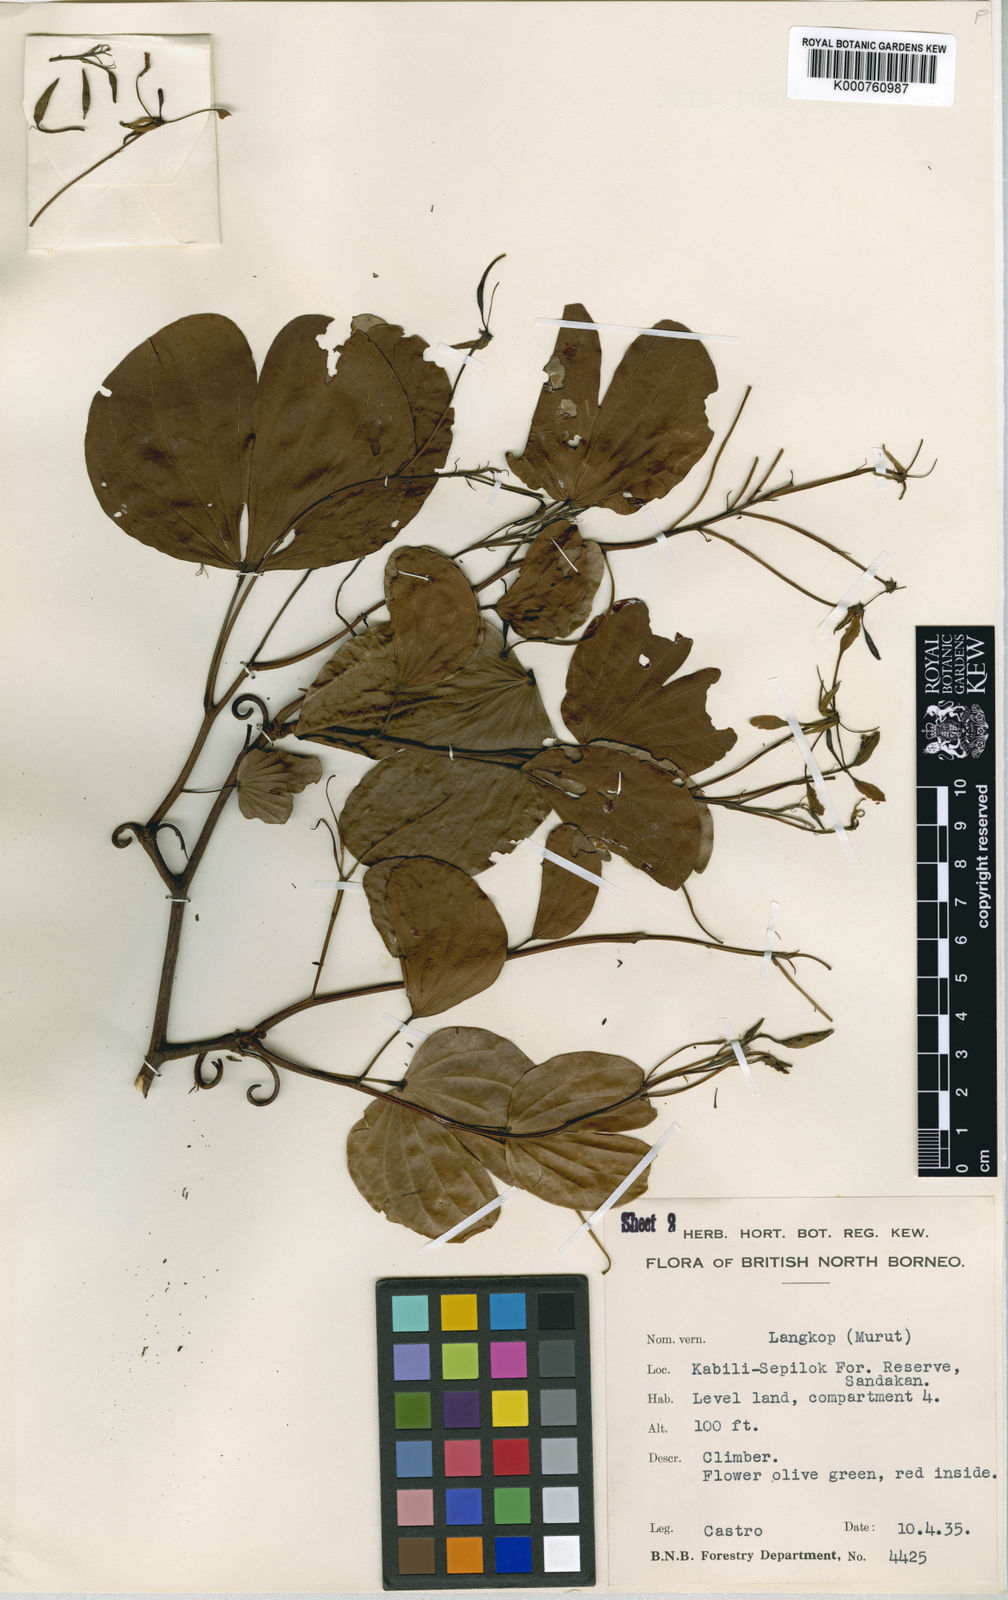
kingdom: Plantae
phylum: Tracheophyta
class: Magnoliopsida
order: Fabales
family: Fabaceae
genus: Phanera
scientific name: Phanera gracillima
